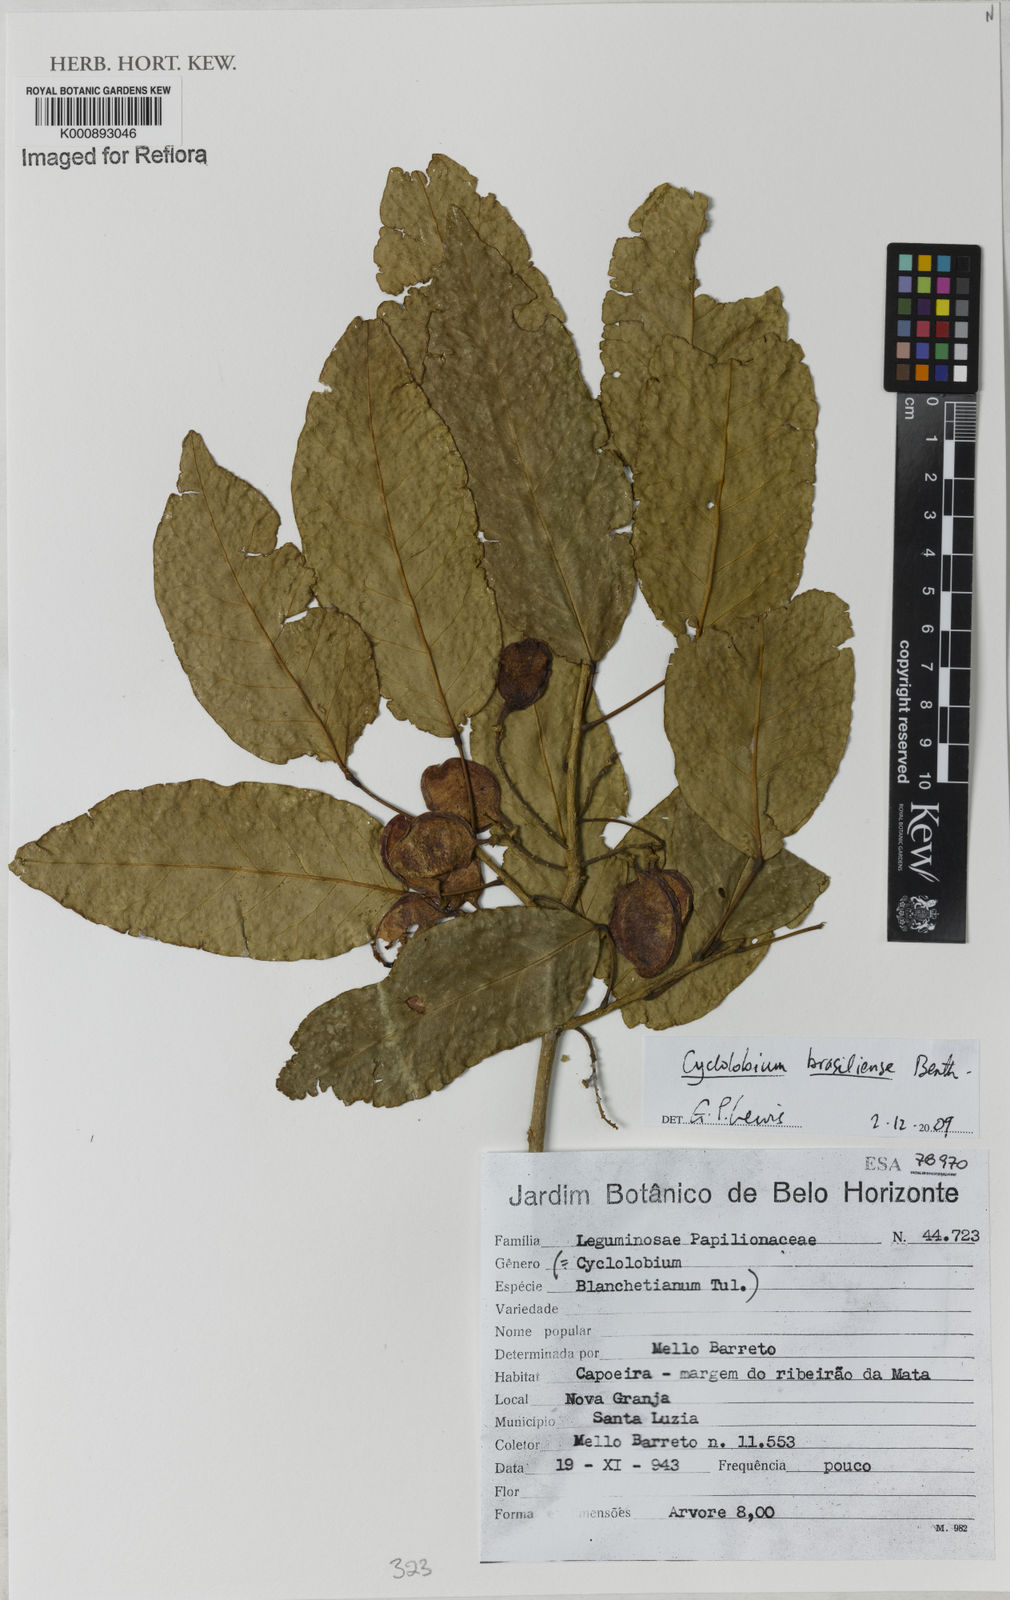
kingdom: Plantae
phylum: Tracheophyta
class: Magnoliopsida
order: Fabales
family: Fabaceae
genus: Cyclolobium
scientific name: Cyclolobium brasiliense
